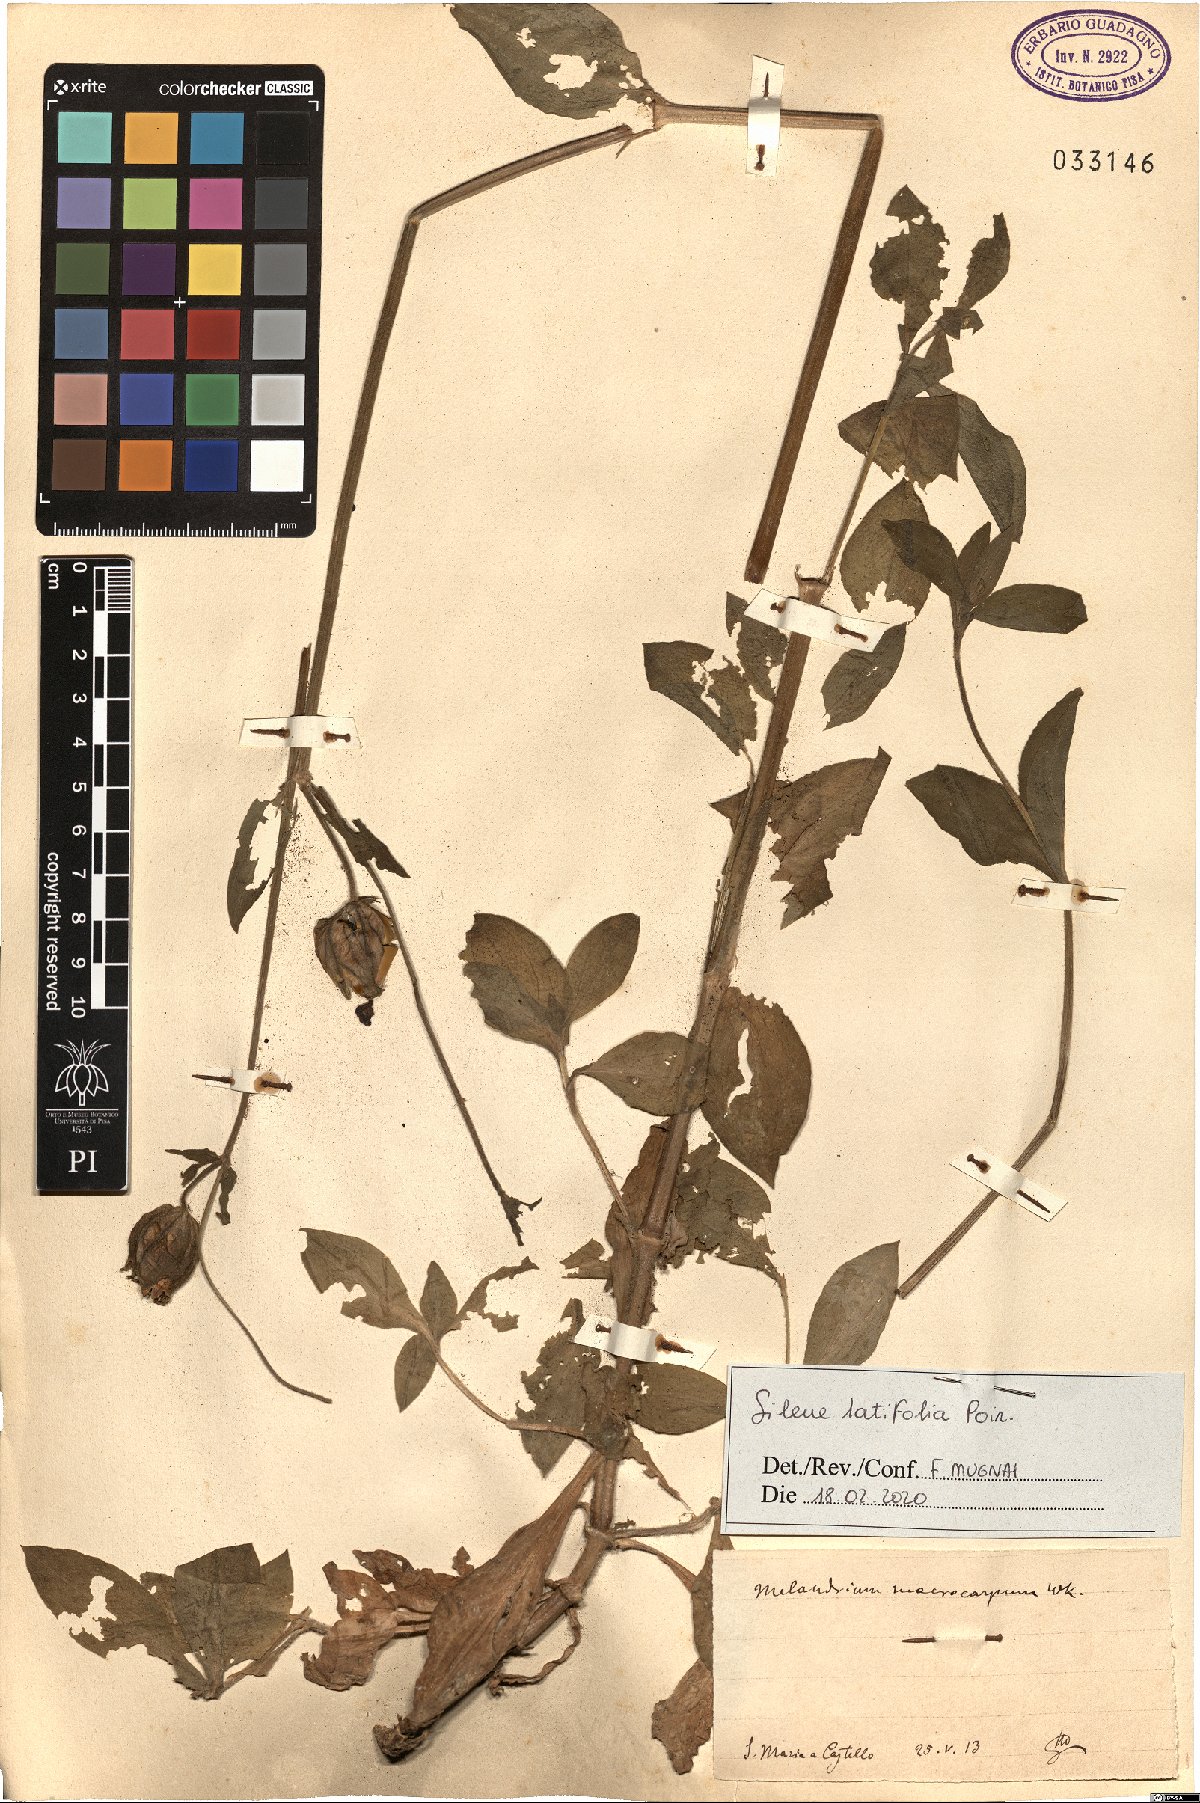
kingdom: Plantae
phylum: Tracheophyta
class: Magnoliopsida
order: Caryophyllales
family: Caryophyllaceae
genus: Silene
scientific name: Silene latifolia
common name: White campion
